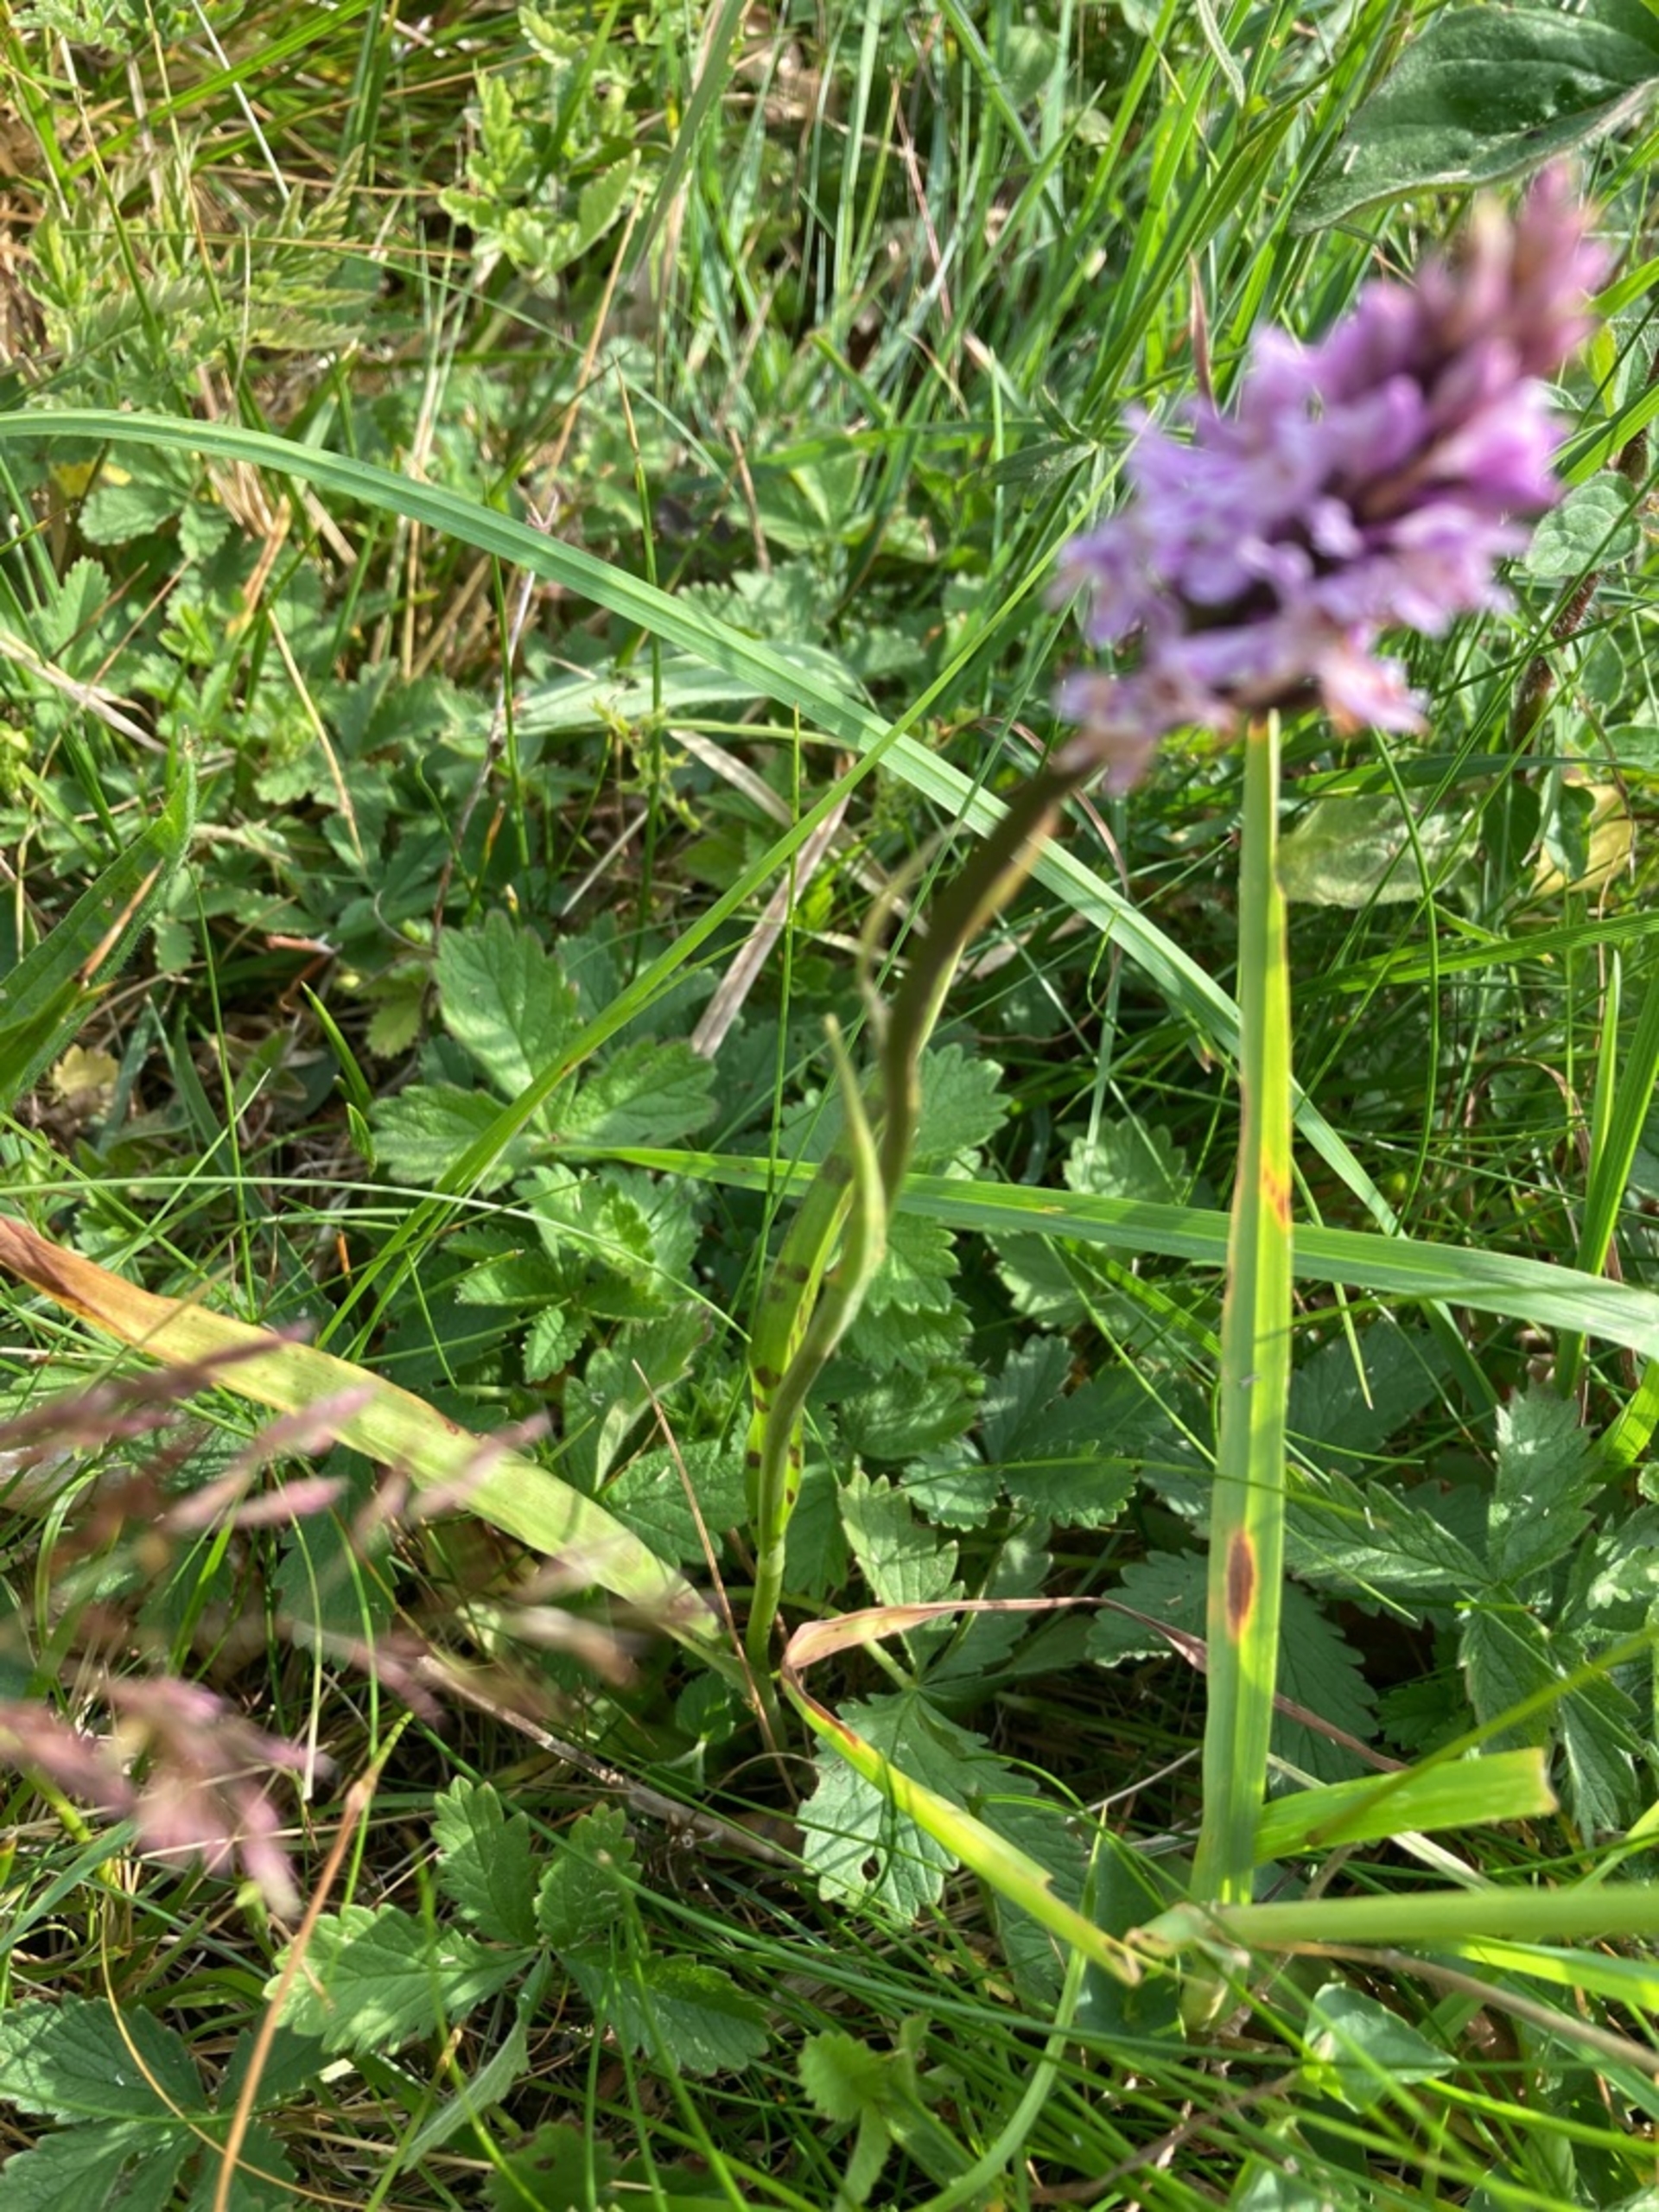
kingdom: Plantae
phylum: Tracheophyta
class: Liliopsida
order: Asparagales
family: Orchidaceae
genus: Dactylorhiza
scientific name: Dactylorhiza maculata
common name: Skov-gøgeurt
